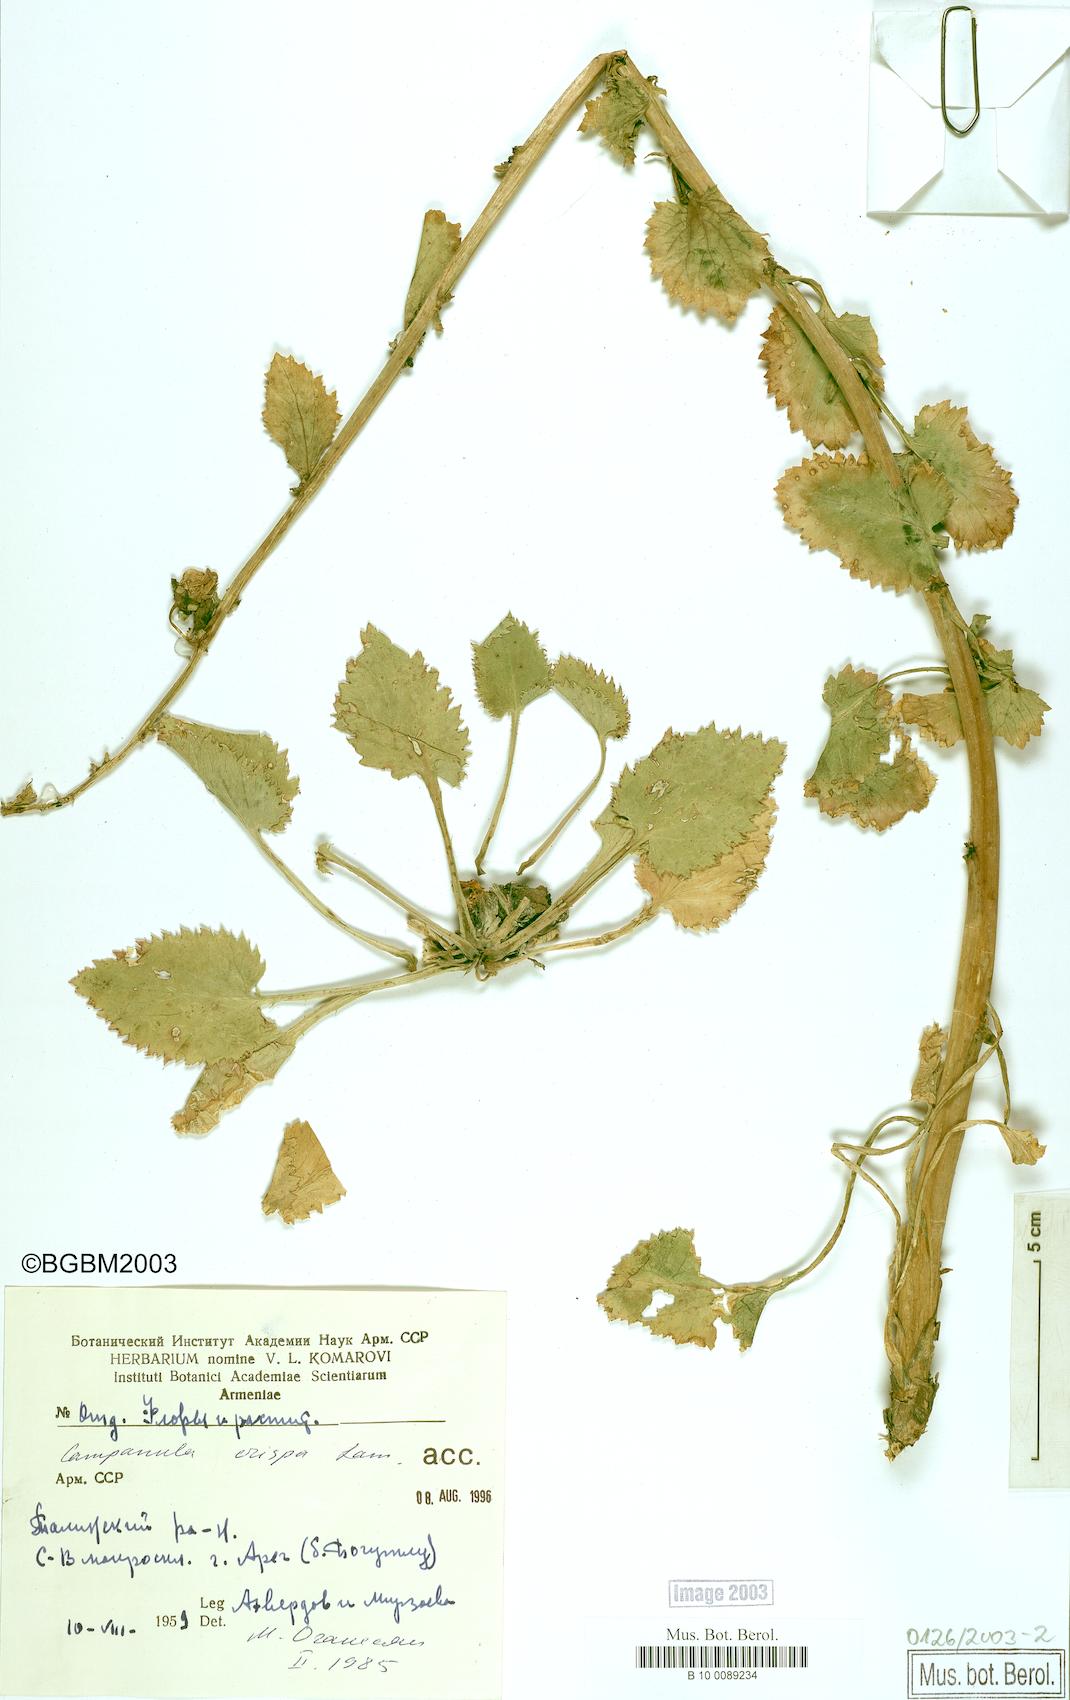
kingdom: Plantae
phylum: Tracheophyta
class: Magnoliopsida
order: Asterales
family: Campanulaceae
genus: Campanula
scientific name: Campanula crispa
